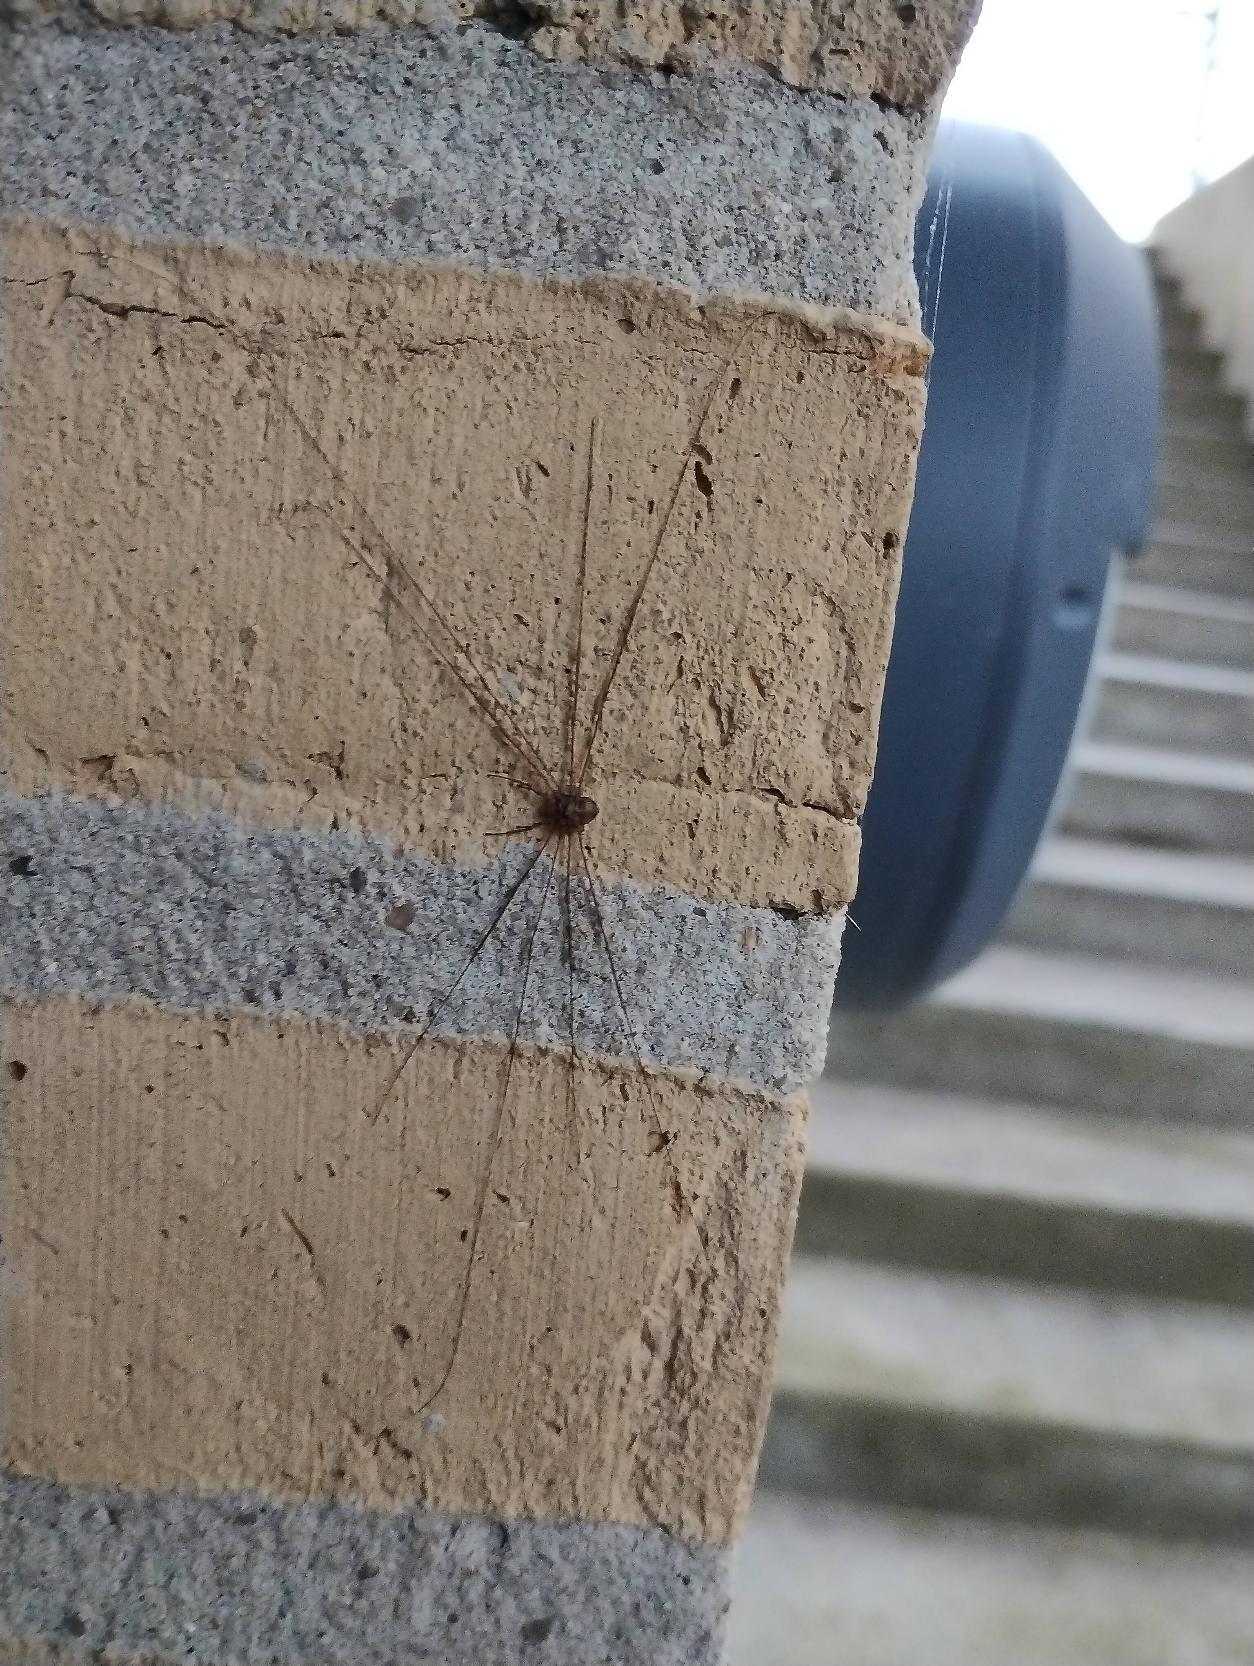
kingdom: Animalia
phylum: Arthropoda
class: Arachnida
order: Opiliones
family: Phalangiidae
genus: Dicranopalpus
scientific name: Dicranopalpus ramosus
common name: Gaffelmejer
